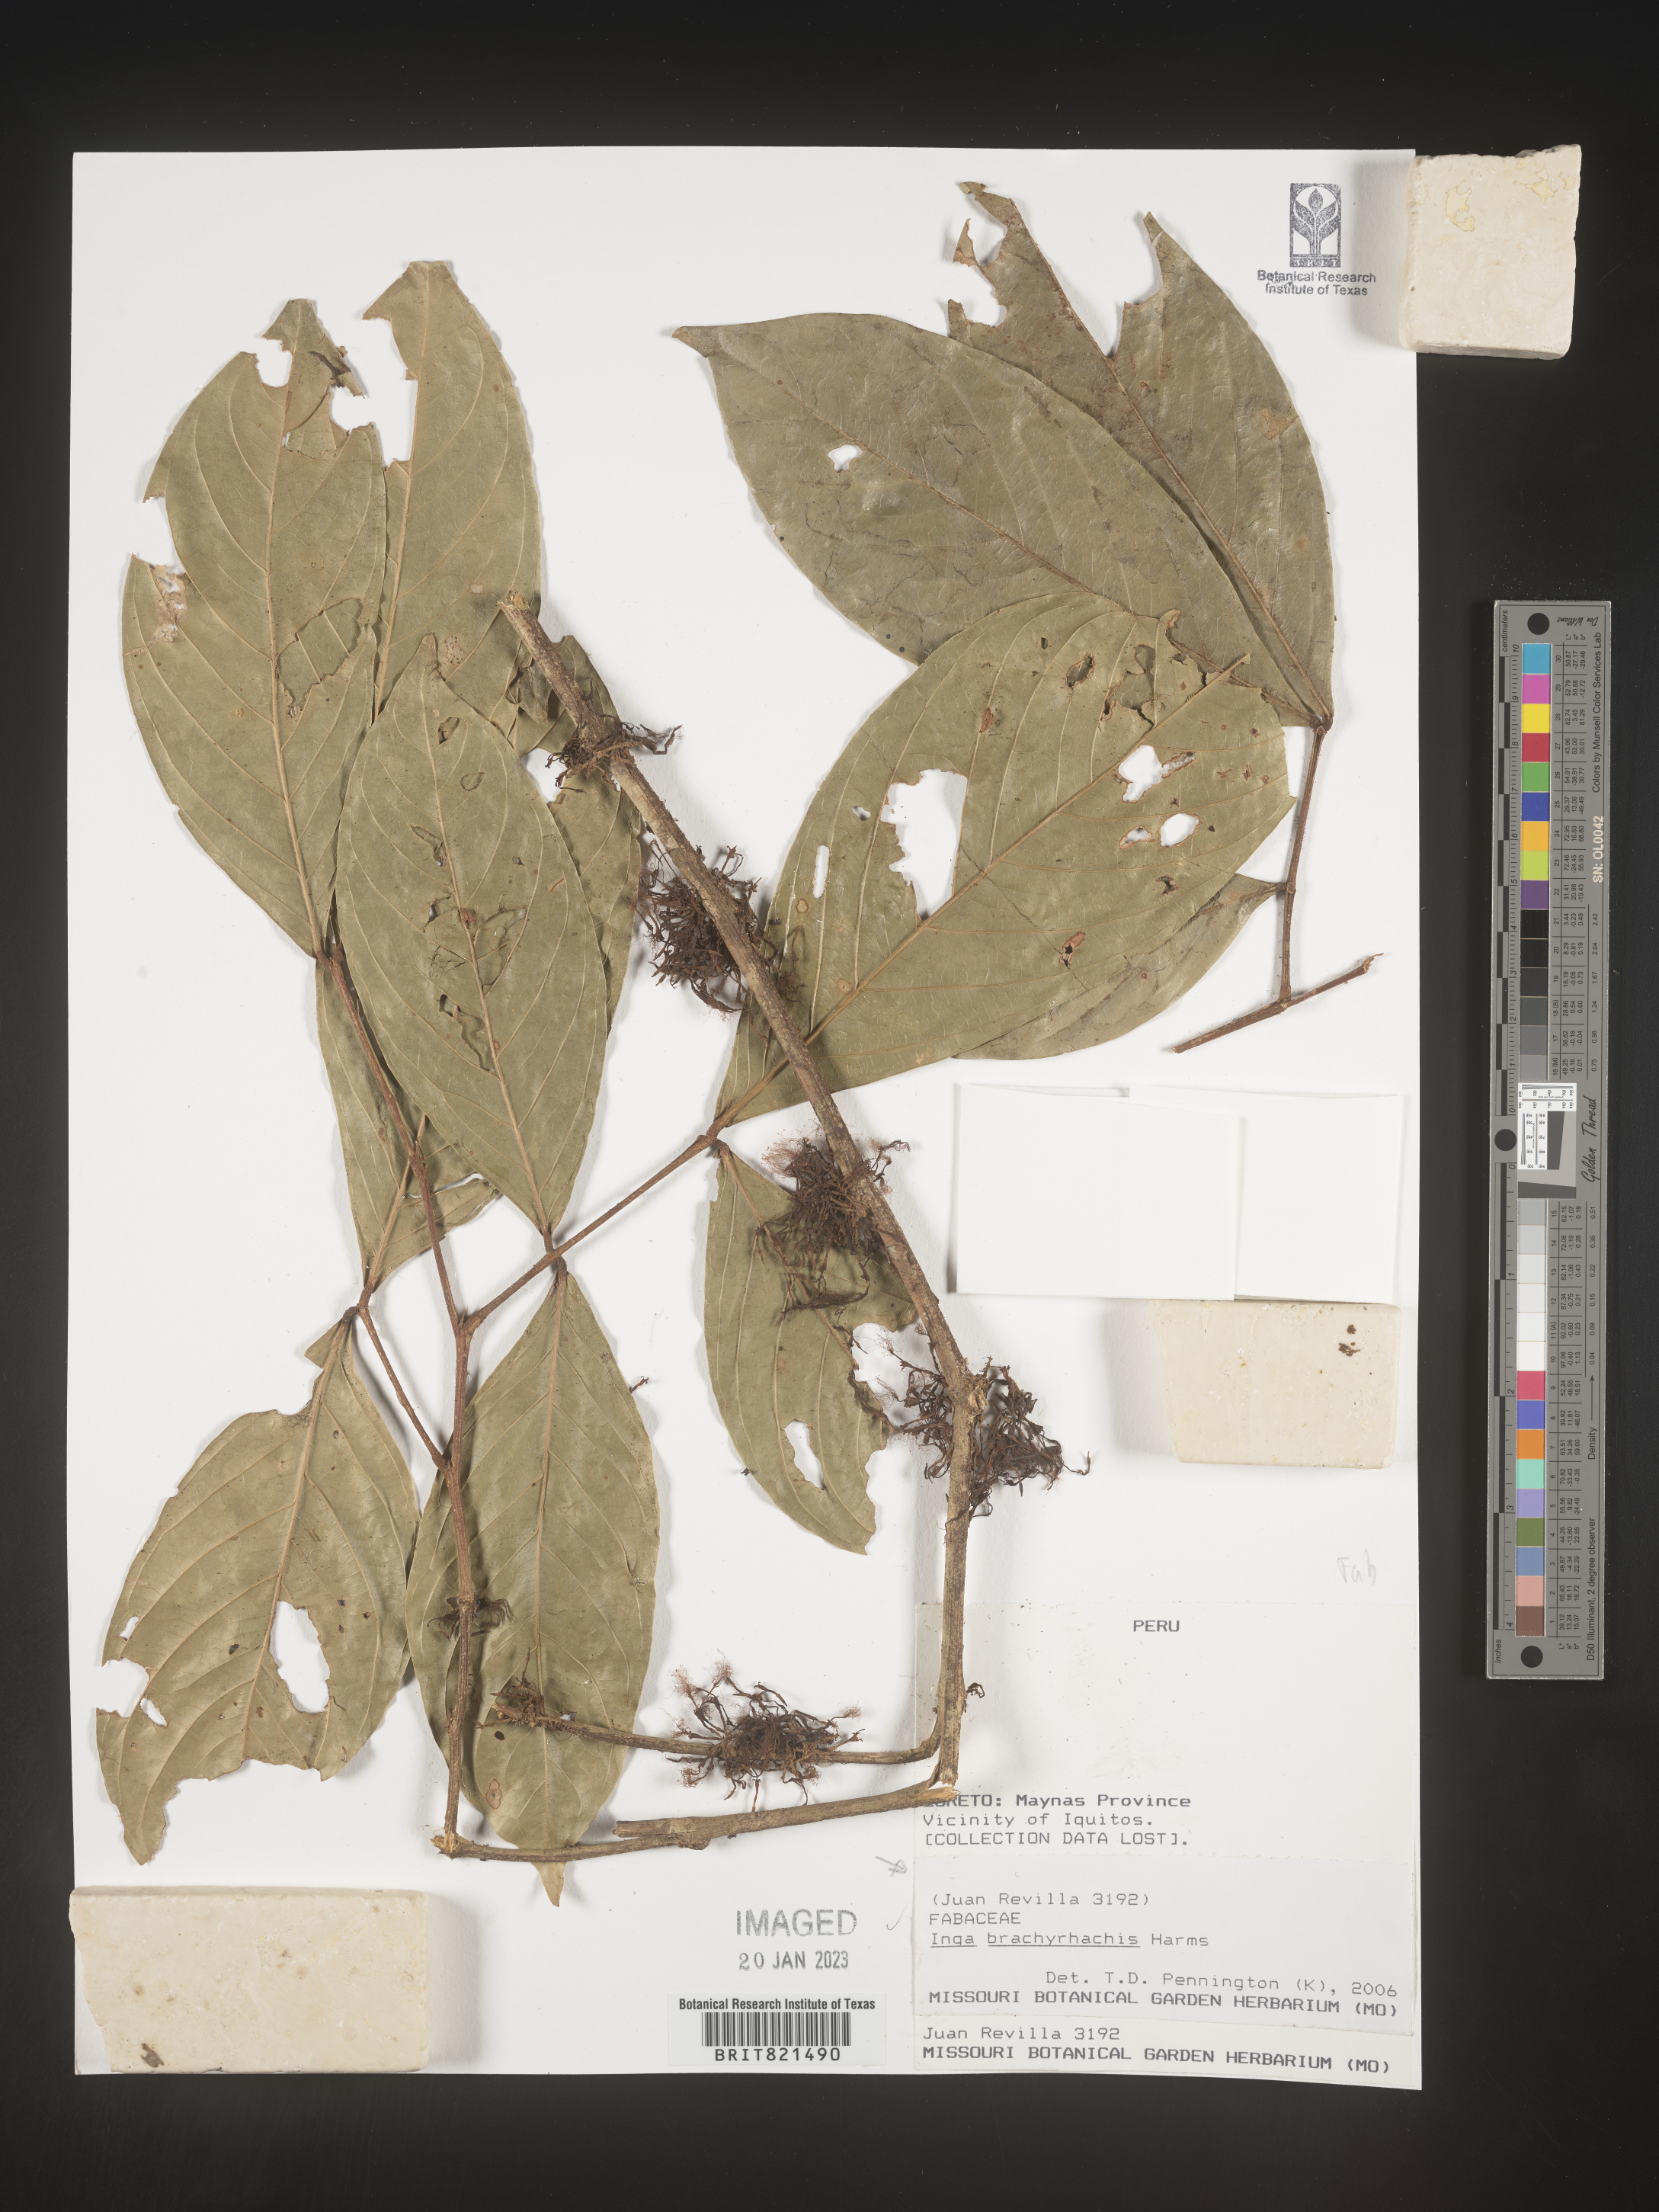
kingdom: Plantae
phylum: Tracheophyta
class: Magnoliopsida
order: Fabales
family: Fabaceae
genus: Inga
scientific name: Inga
